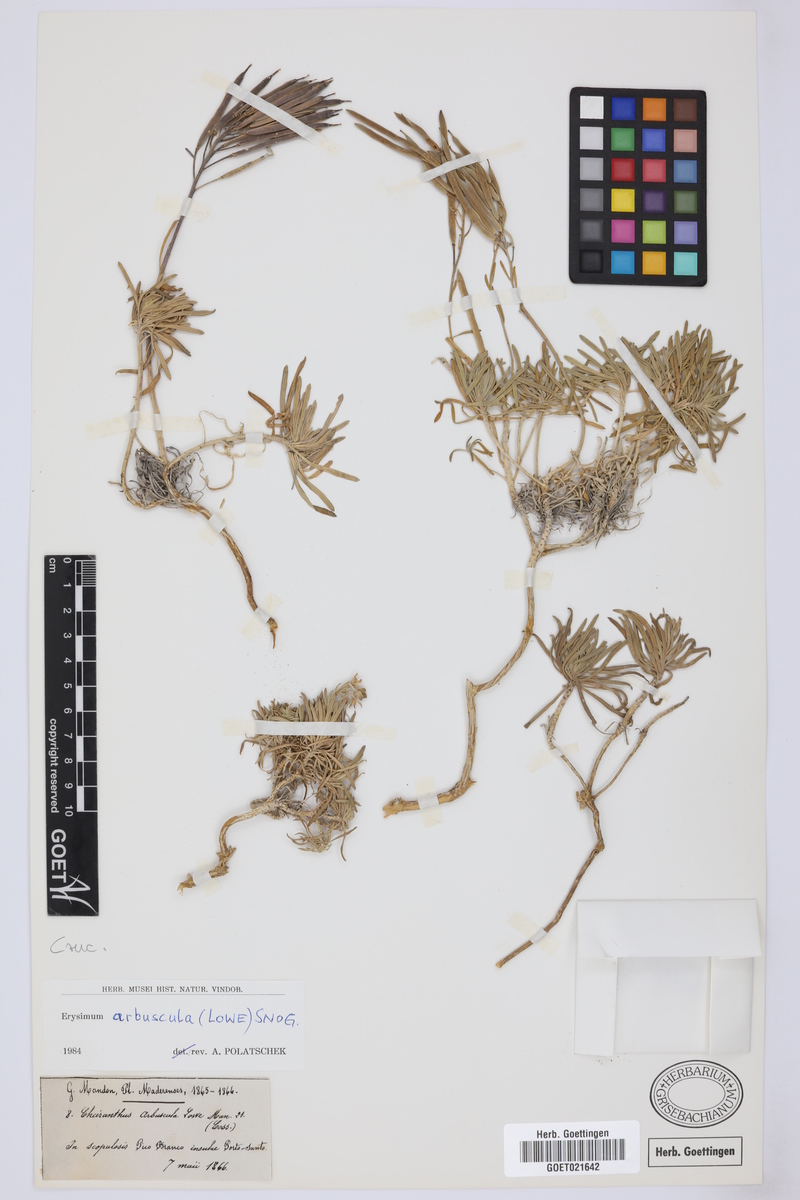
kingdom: Plantae
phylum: Tracheophyta
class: Magnoliopsida
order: Brassicales
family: Brassicaceae
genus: Erysimum
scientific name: Erysimum arbuscula
